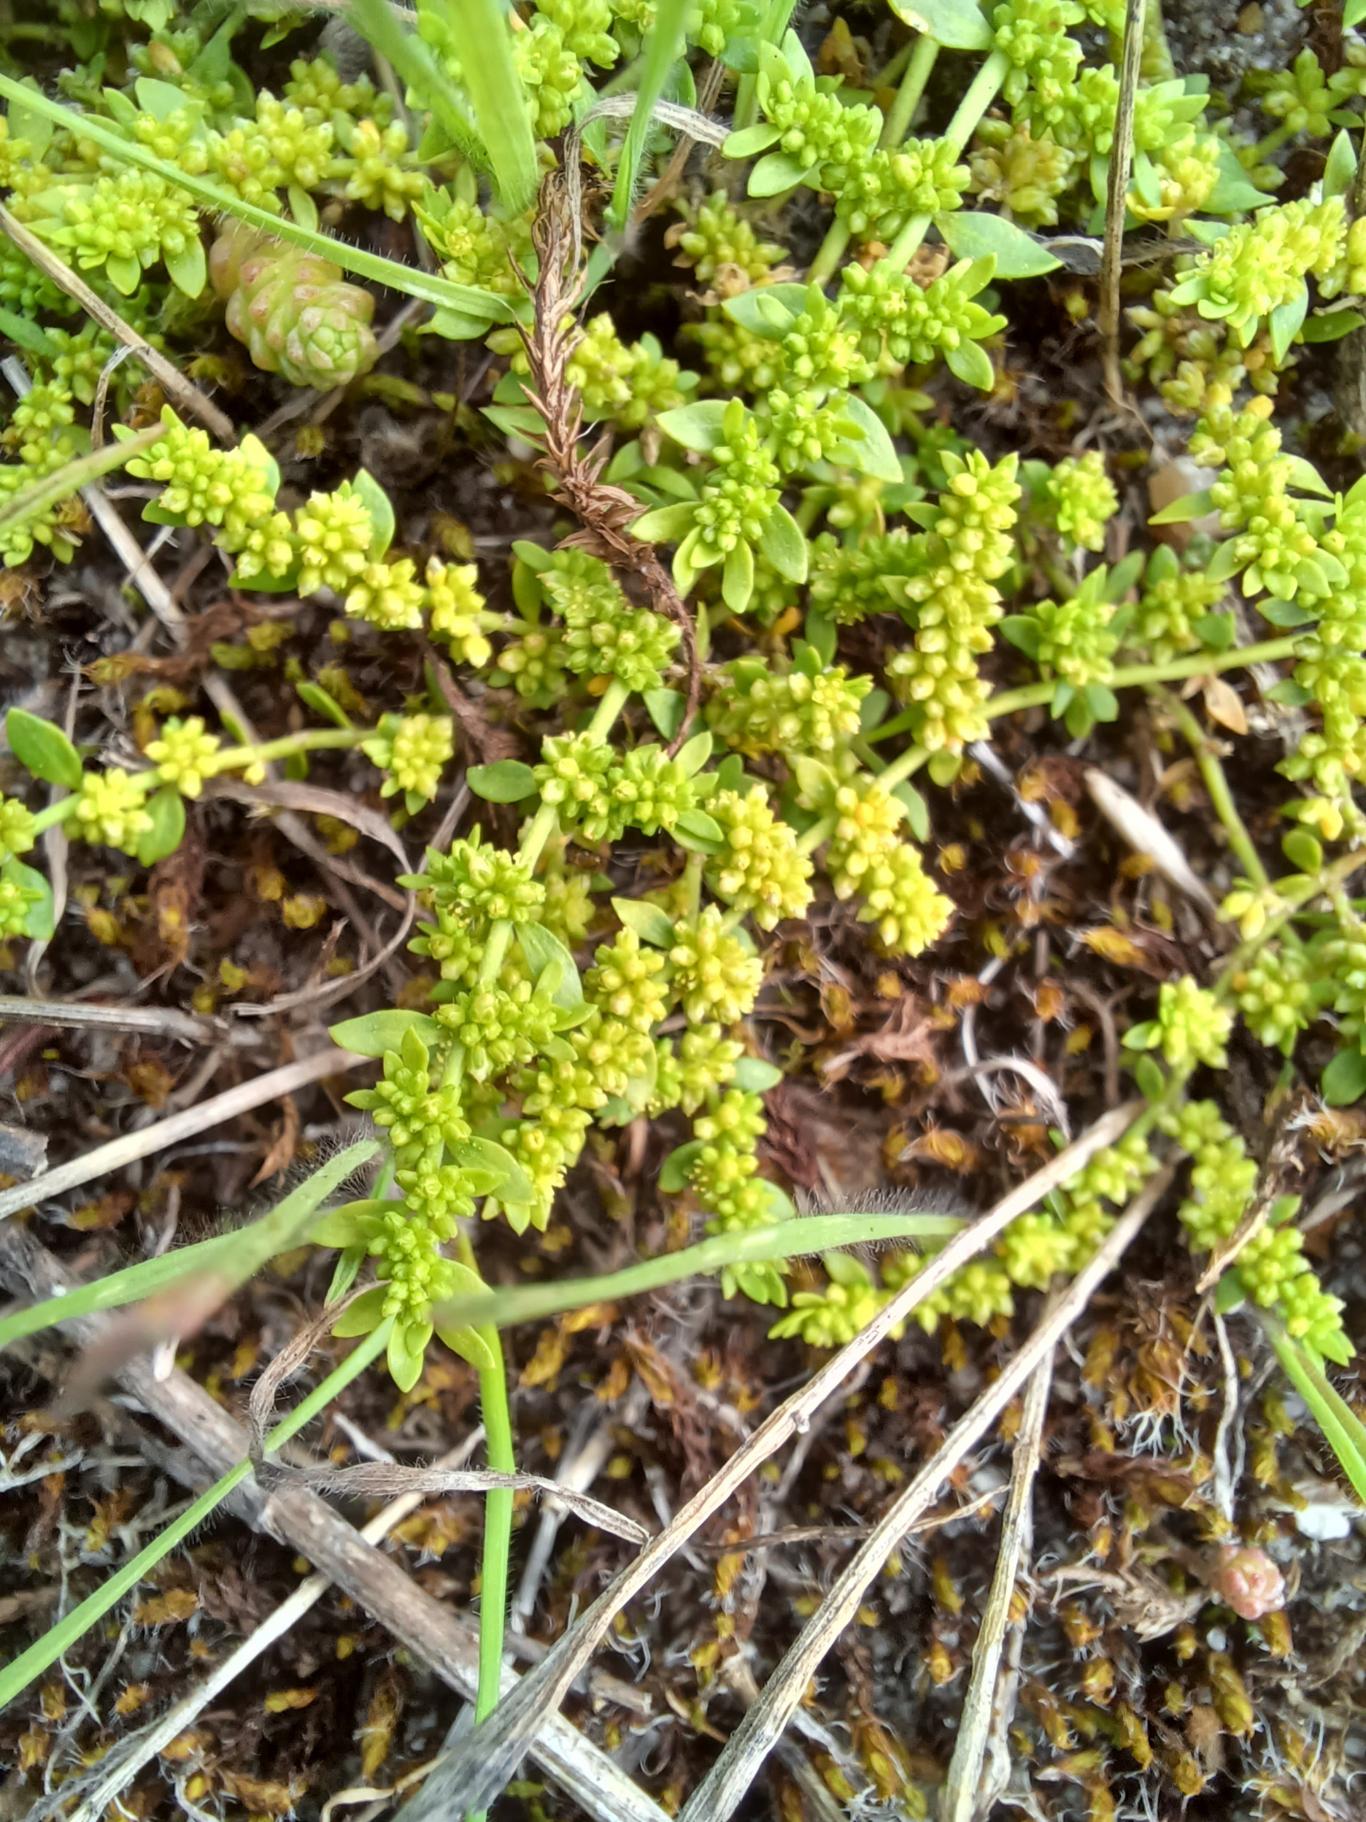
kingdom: Plantae
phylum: Tracheophyta
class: Magnoliopsida
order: Caryophyllales
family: Caryophyllaceae
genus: Herniaria
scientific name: Herniaria glabra
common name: Brudurt
